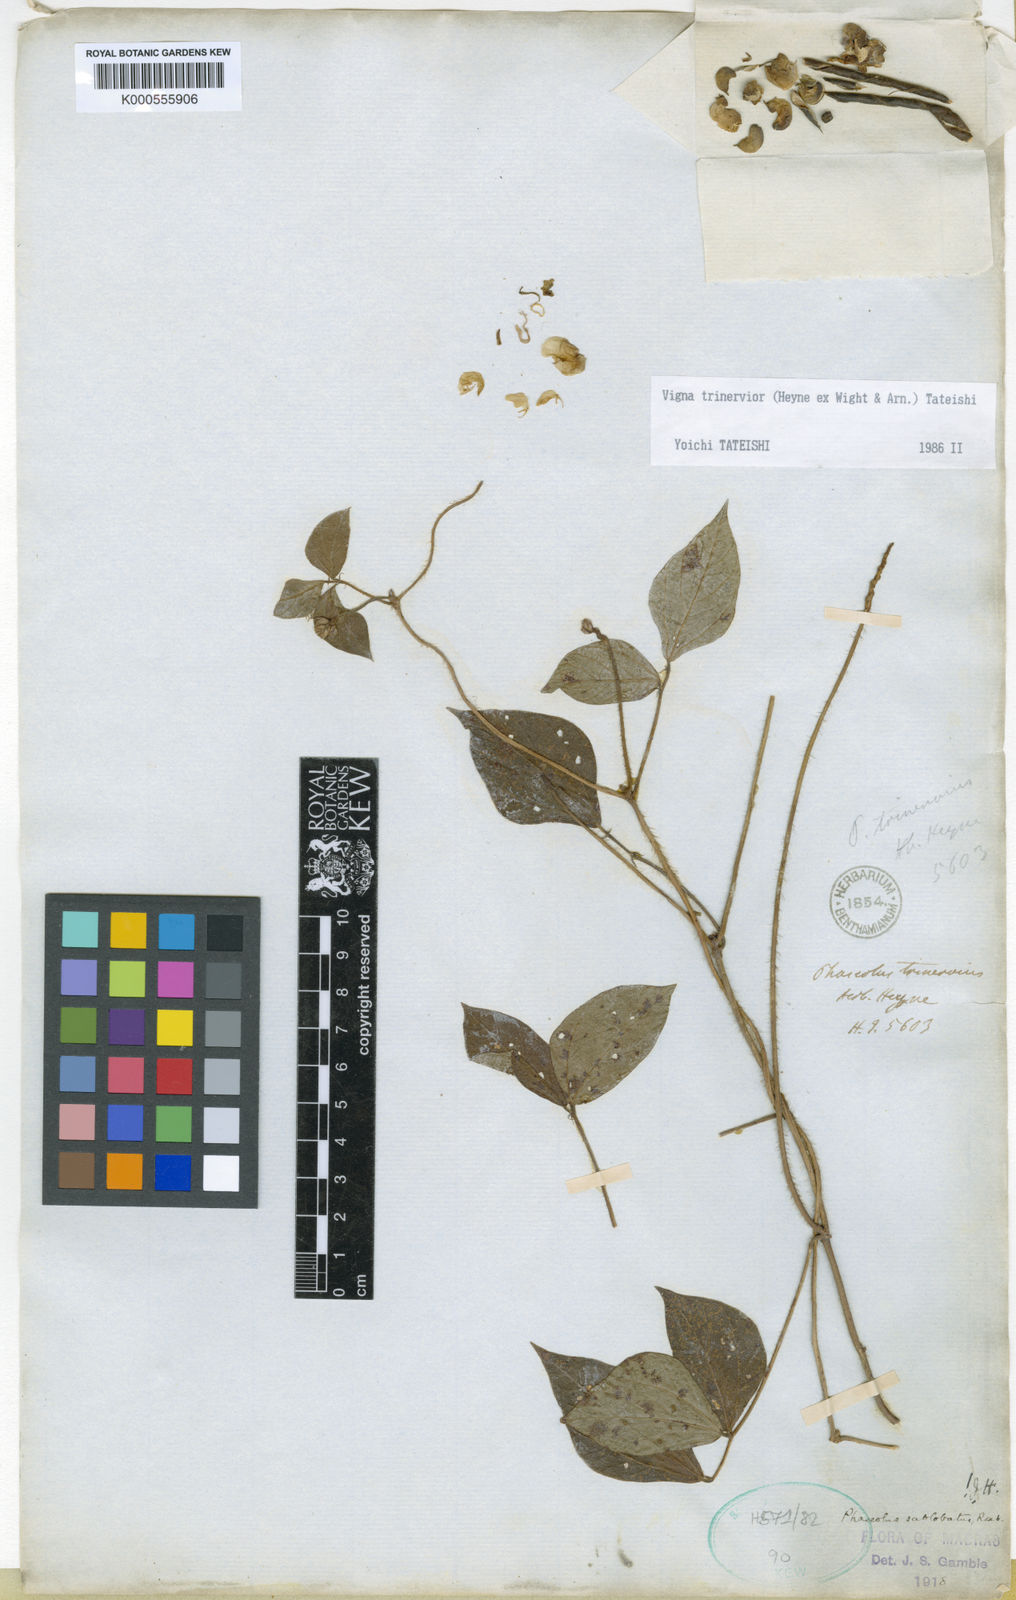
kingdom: Plantae
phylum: Tracheophyta
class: Magnoliopsida
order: Fabales
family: Fabaceae
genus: Vigna
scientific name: Vigna
